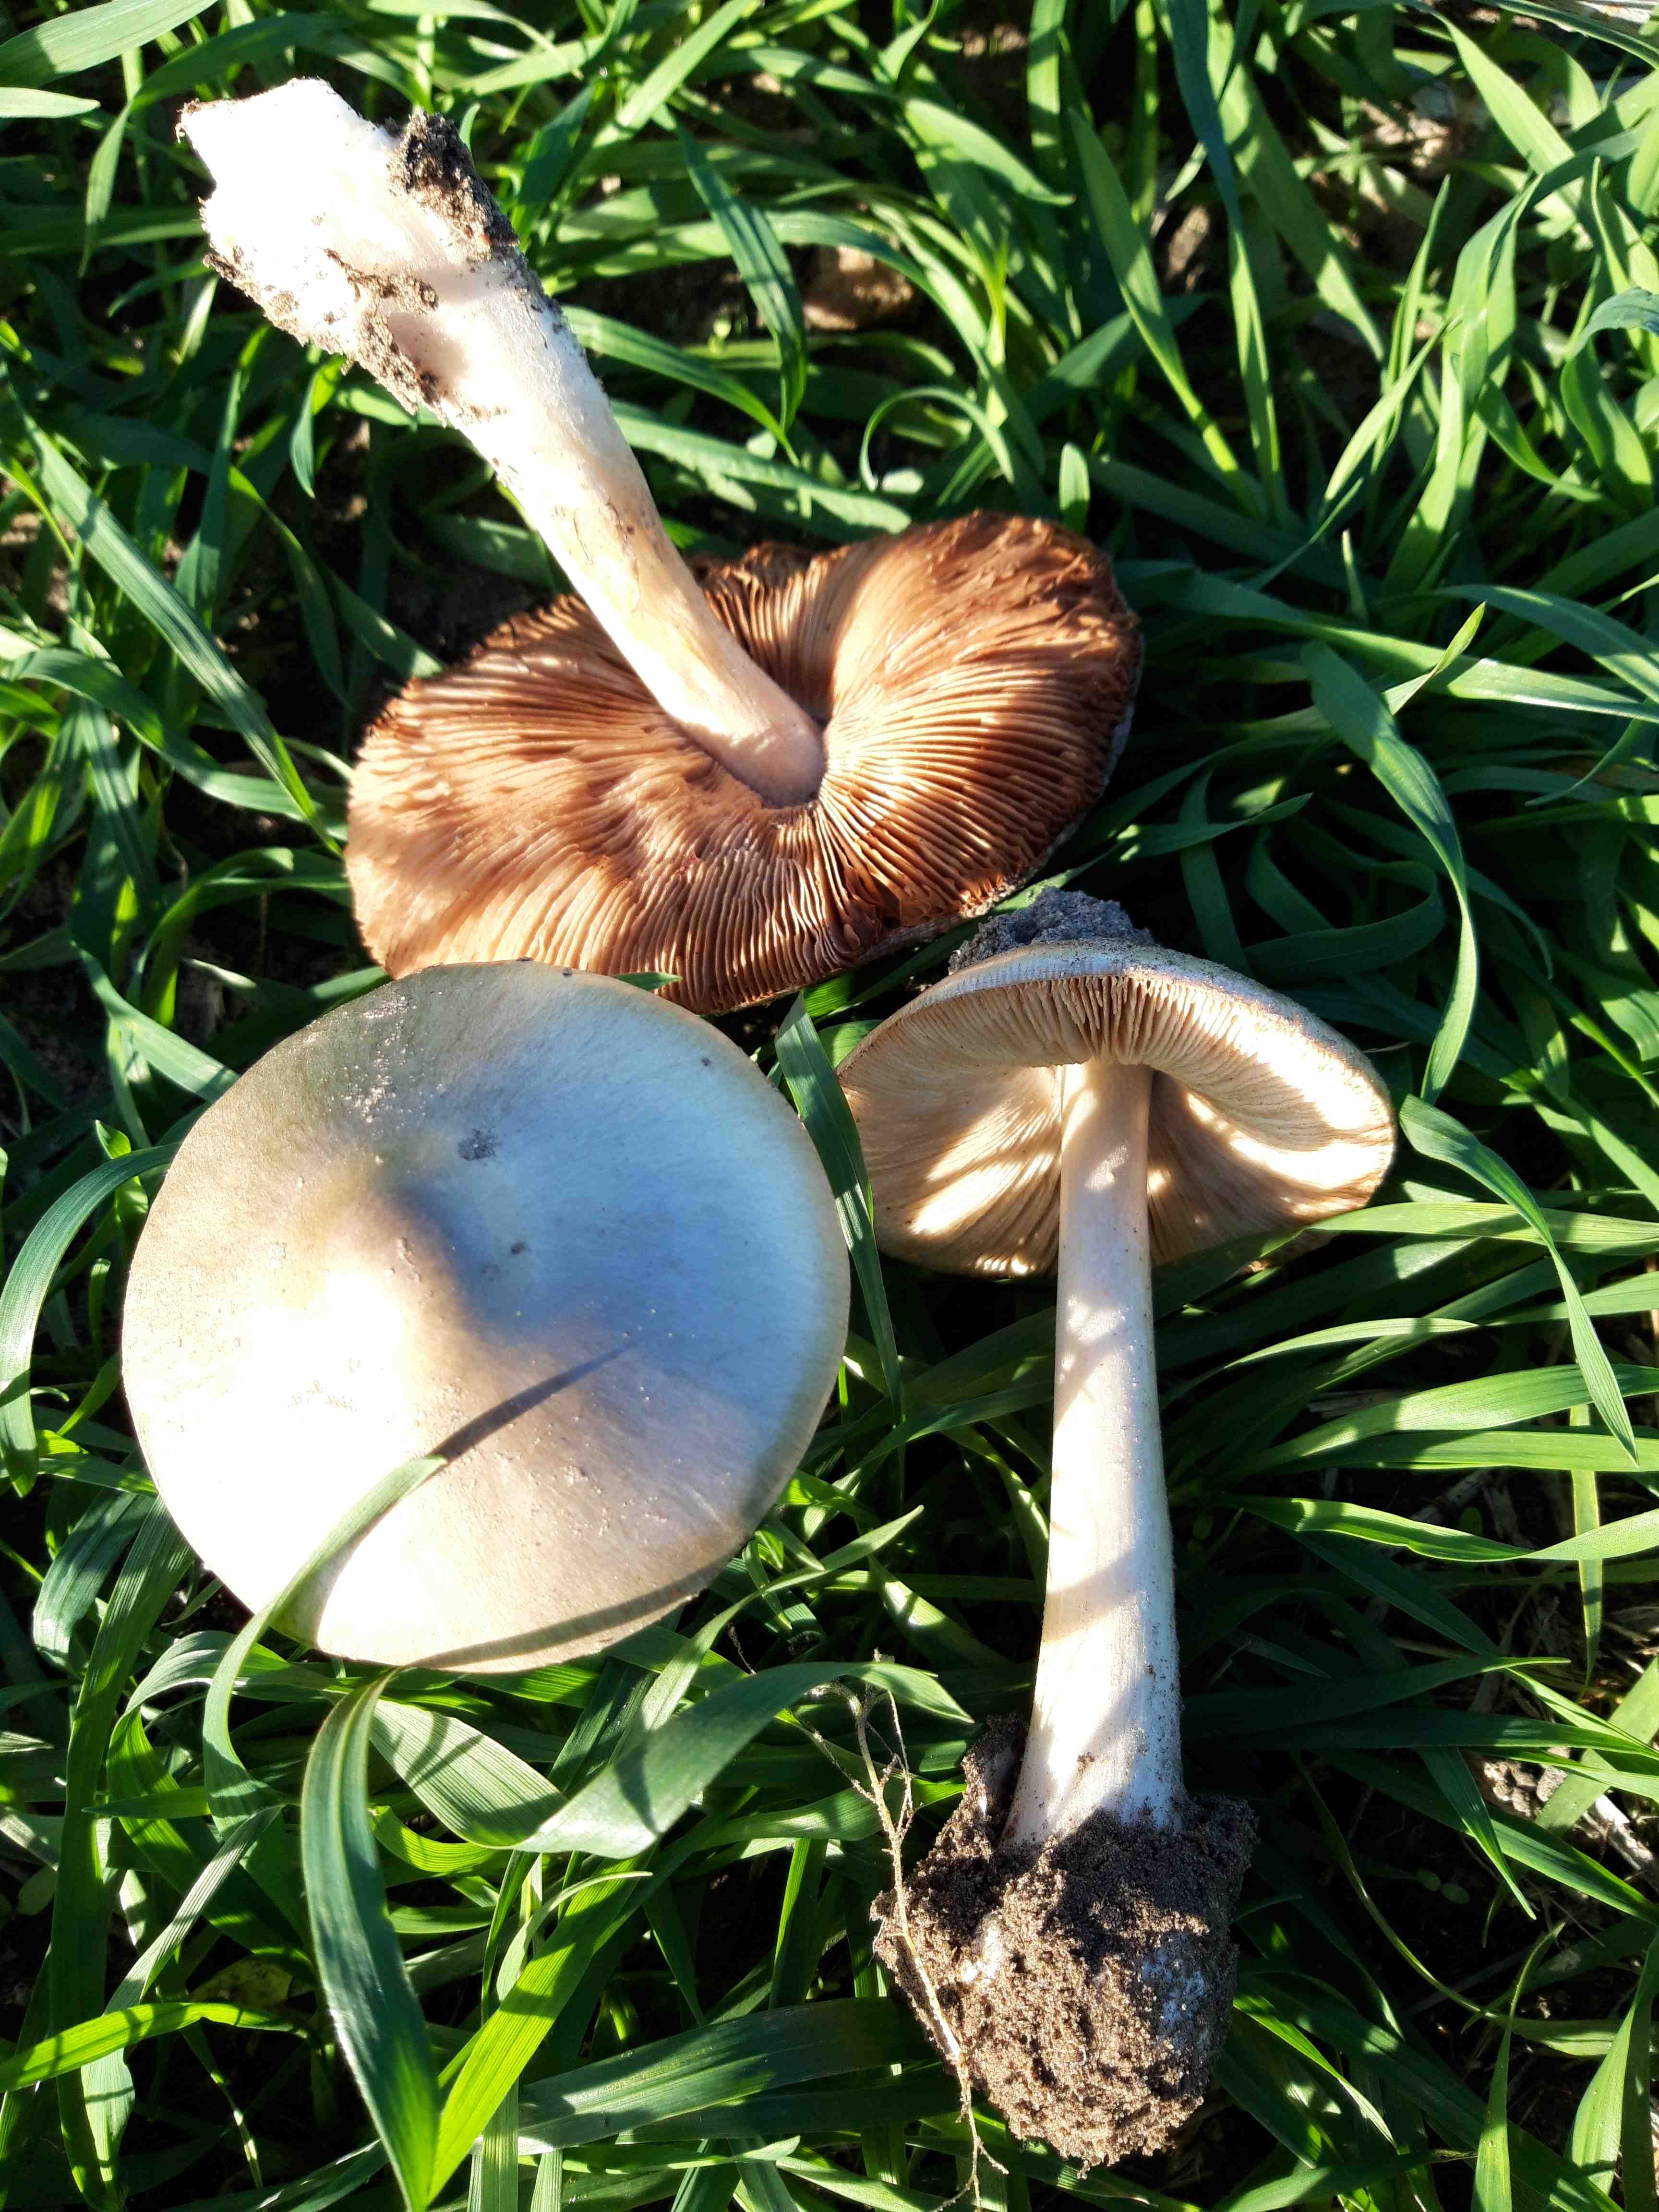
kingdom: Fungi
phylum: Basidiomycota
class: Agaricomycetes
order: Agaricales
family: Pluteaceae
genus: Volvopluteus
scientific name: Volvopluteus gloiocephalus
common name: høj posesvamp
